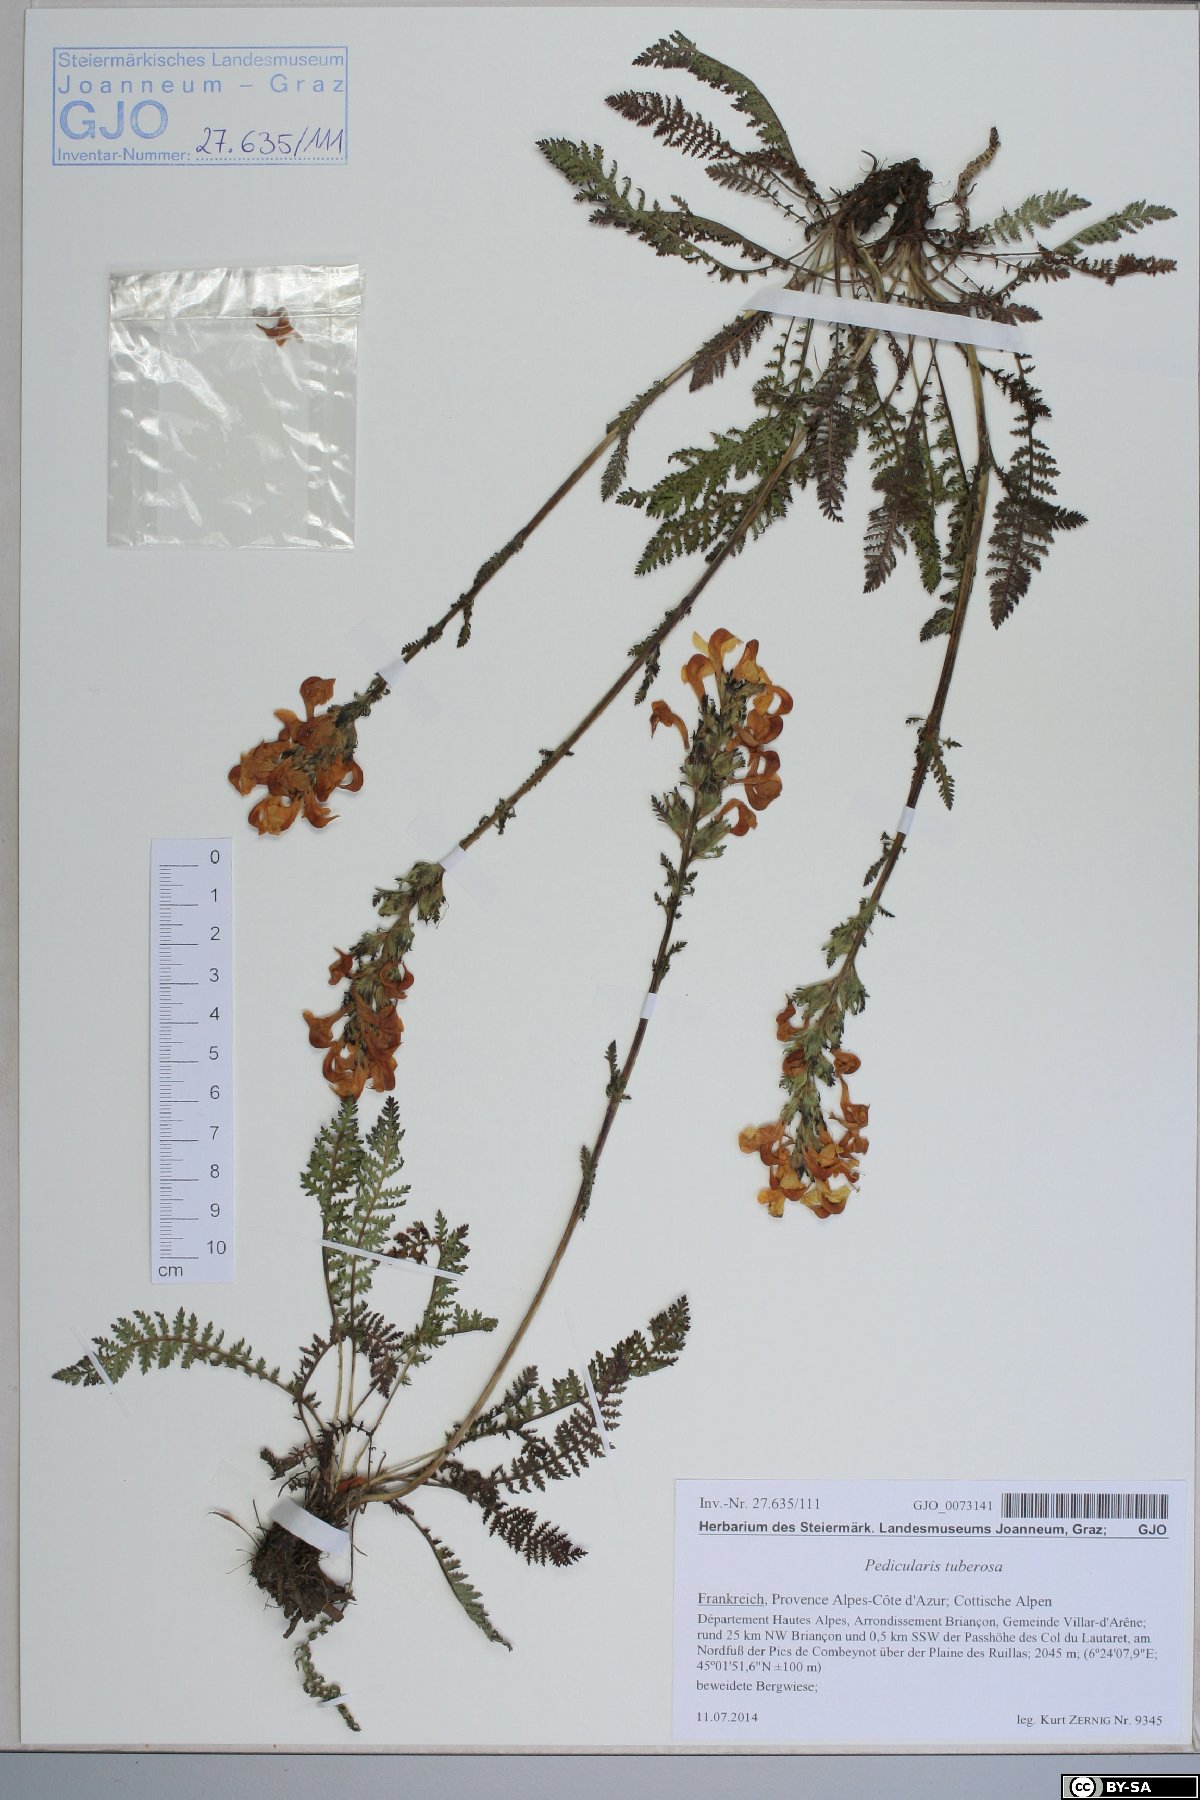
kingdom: Plantae
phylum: Tracheophyta
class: Magnoliopsida
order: Lamiales
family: Orobanchaceae
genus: Pedicularis
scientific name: Pedicularis tuberosa
